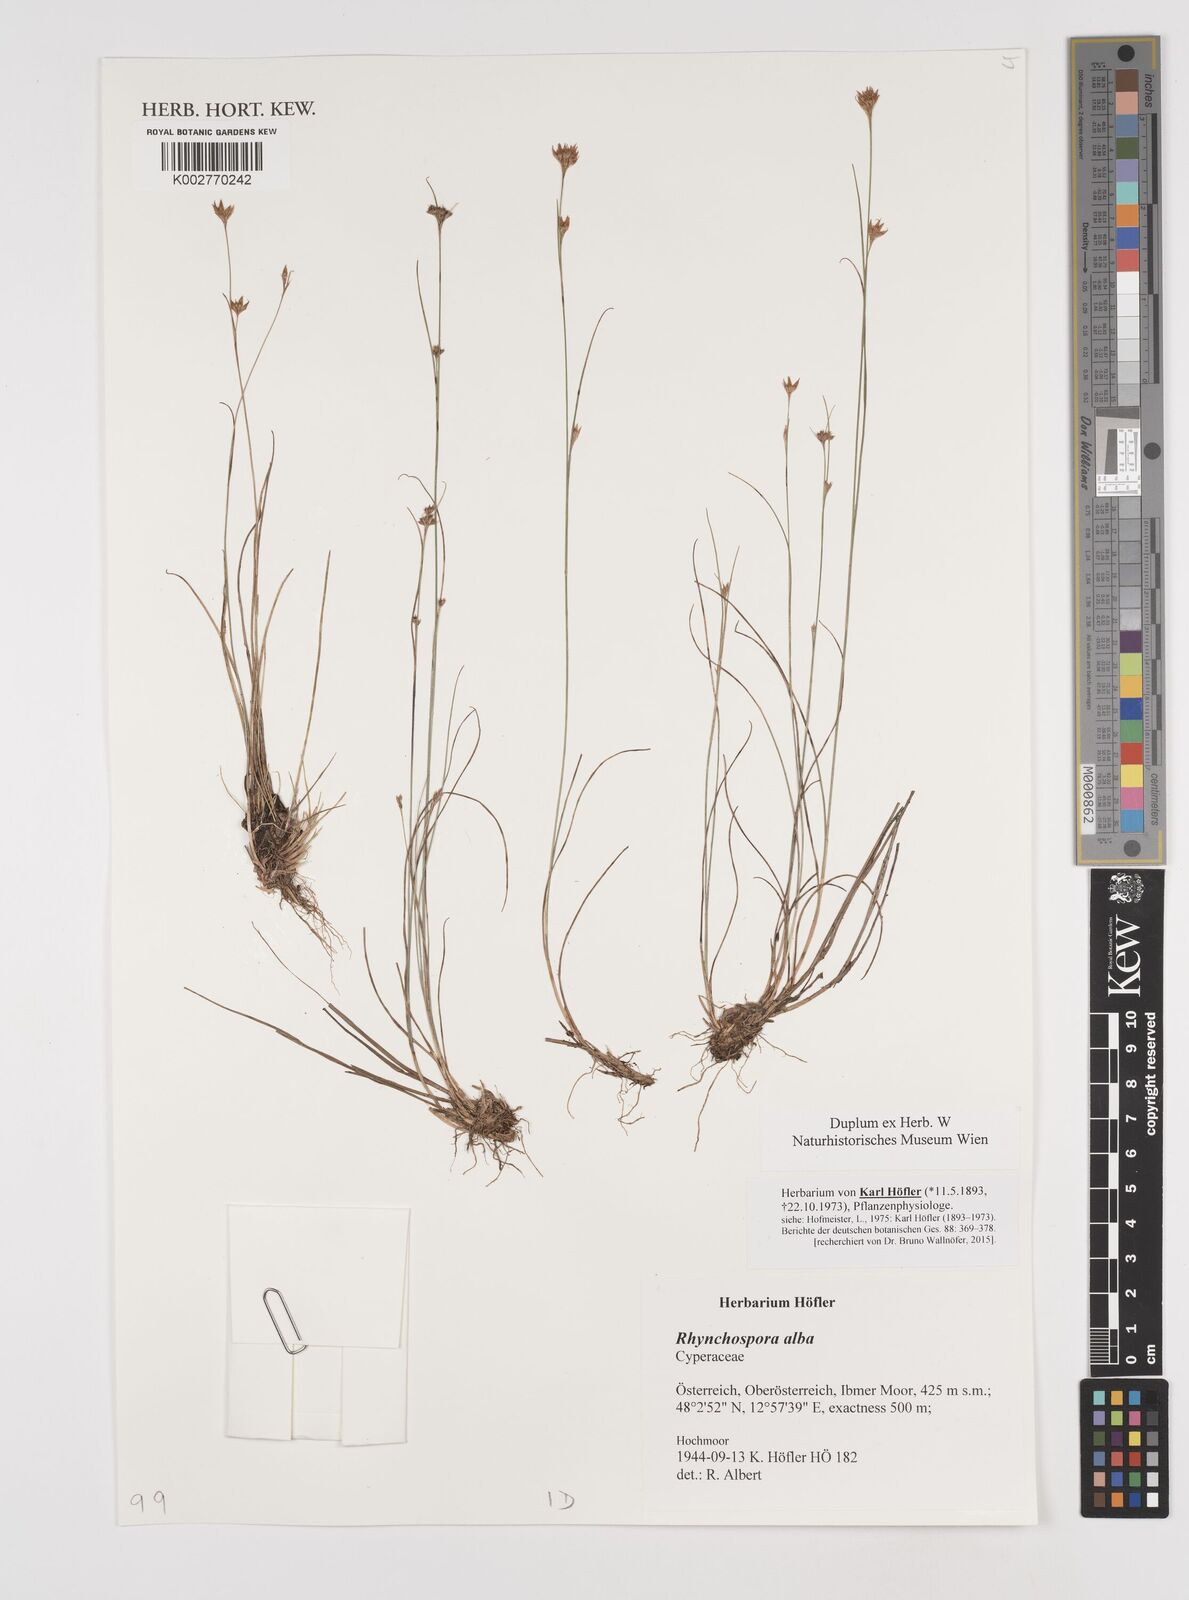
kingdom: Plantae
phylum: Tracheophyta
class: Liliopsida
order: Poales
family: Cyperaceae
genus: Rhynchospora
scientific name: Rhynchospora alba
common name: White beak-sedge
